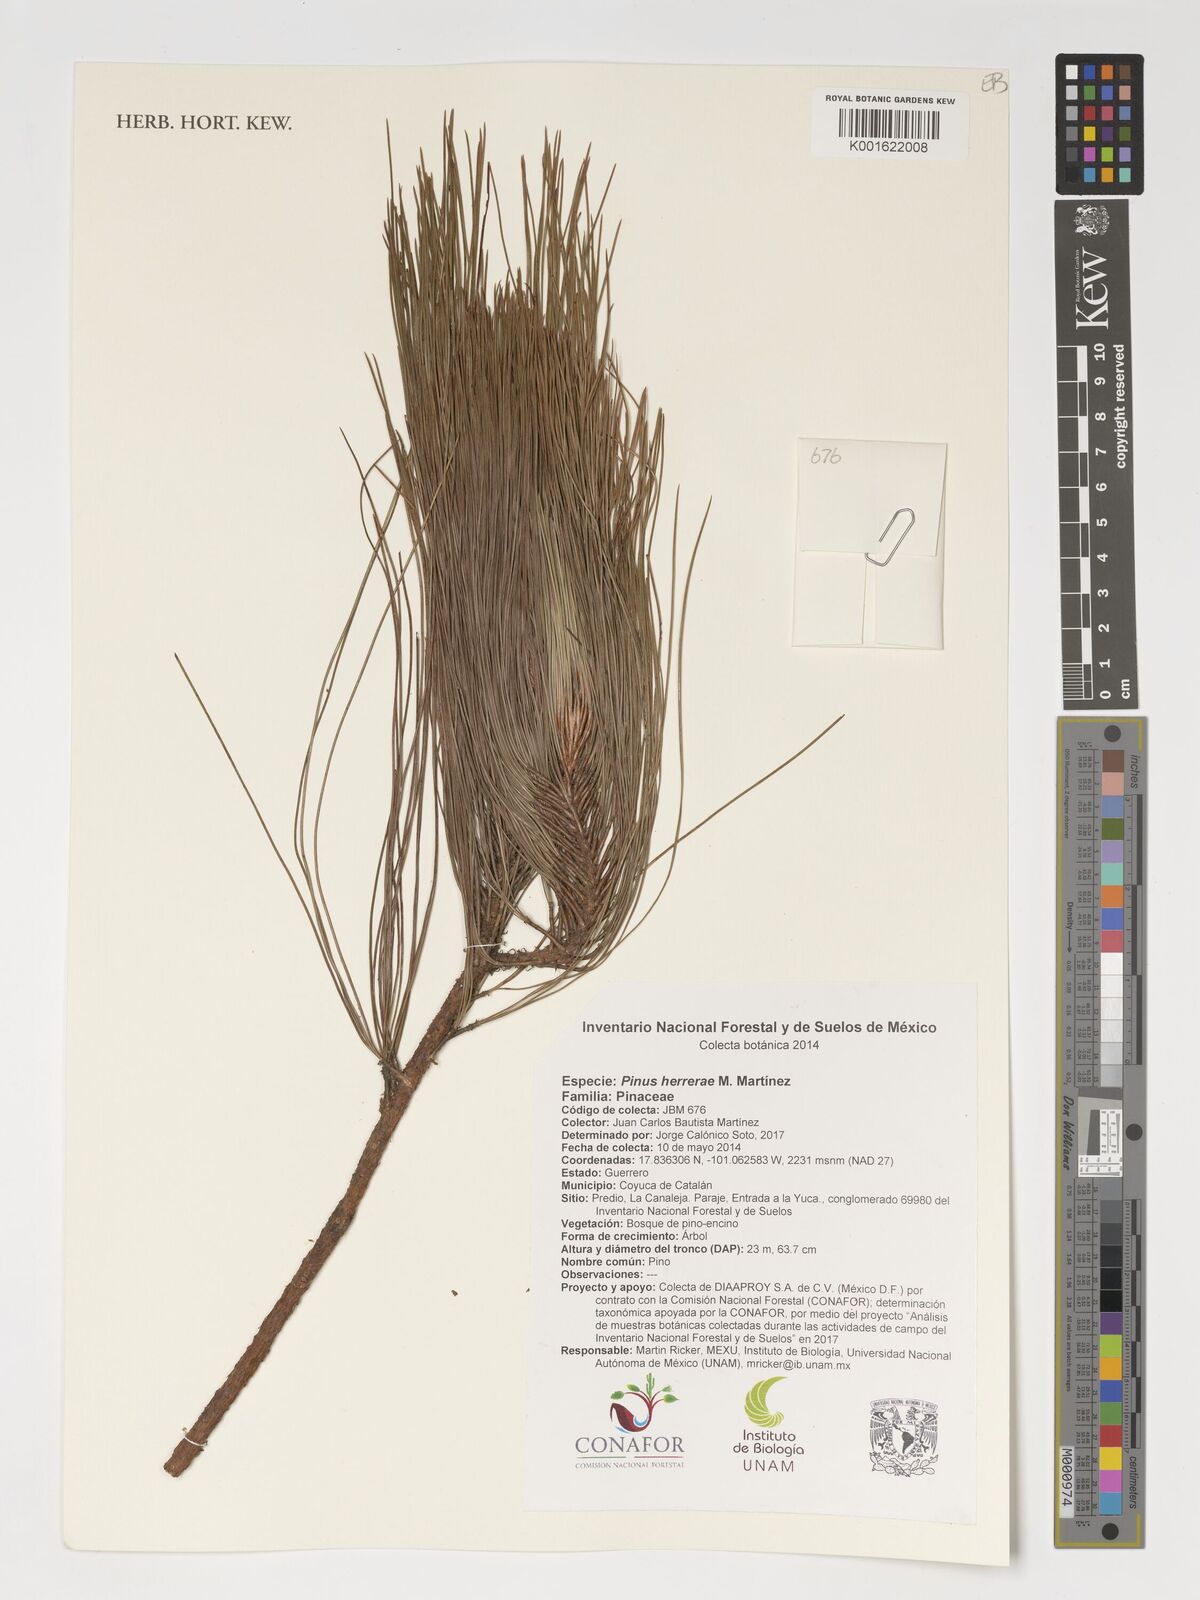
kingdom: Plantae
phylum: Tracheophyta
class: Pinopsida
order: Pinales
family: Pinaceae
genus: Pinus
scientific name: Pinus herrerae
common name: Herrera's pine
